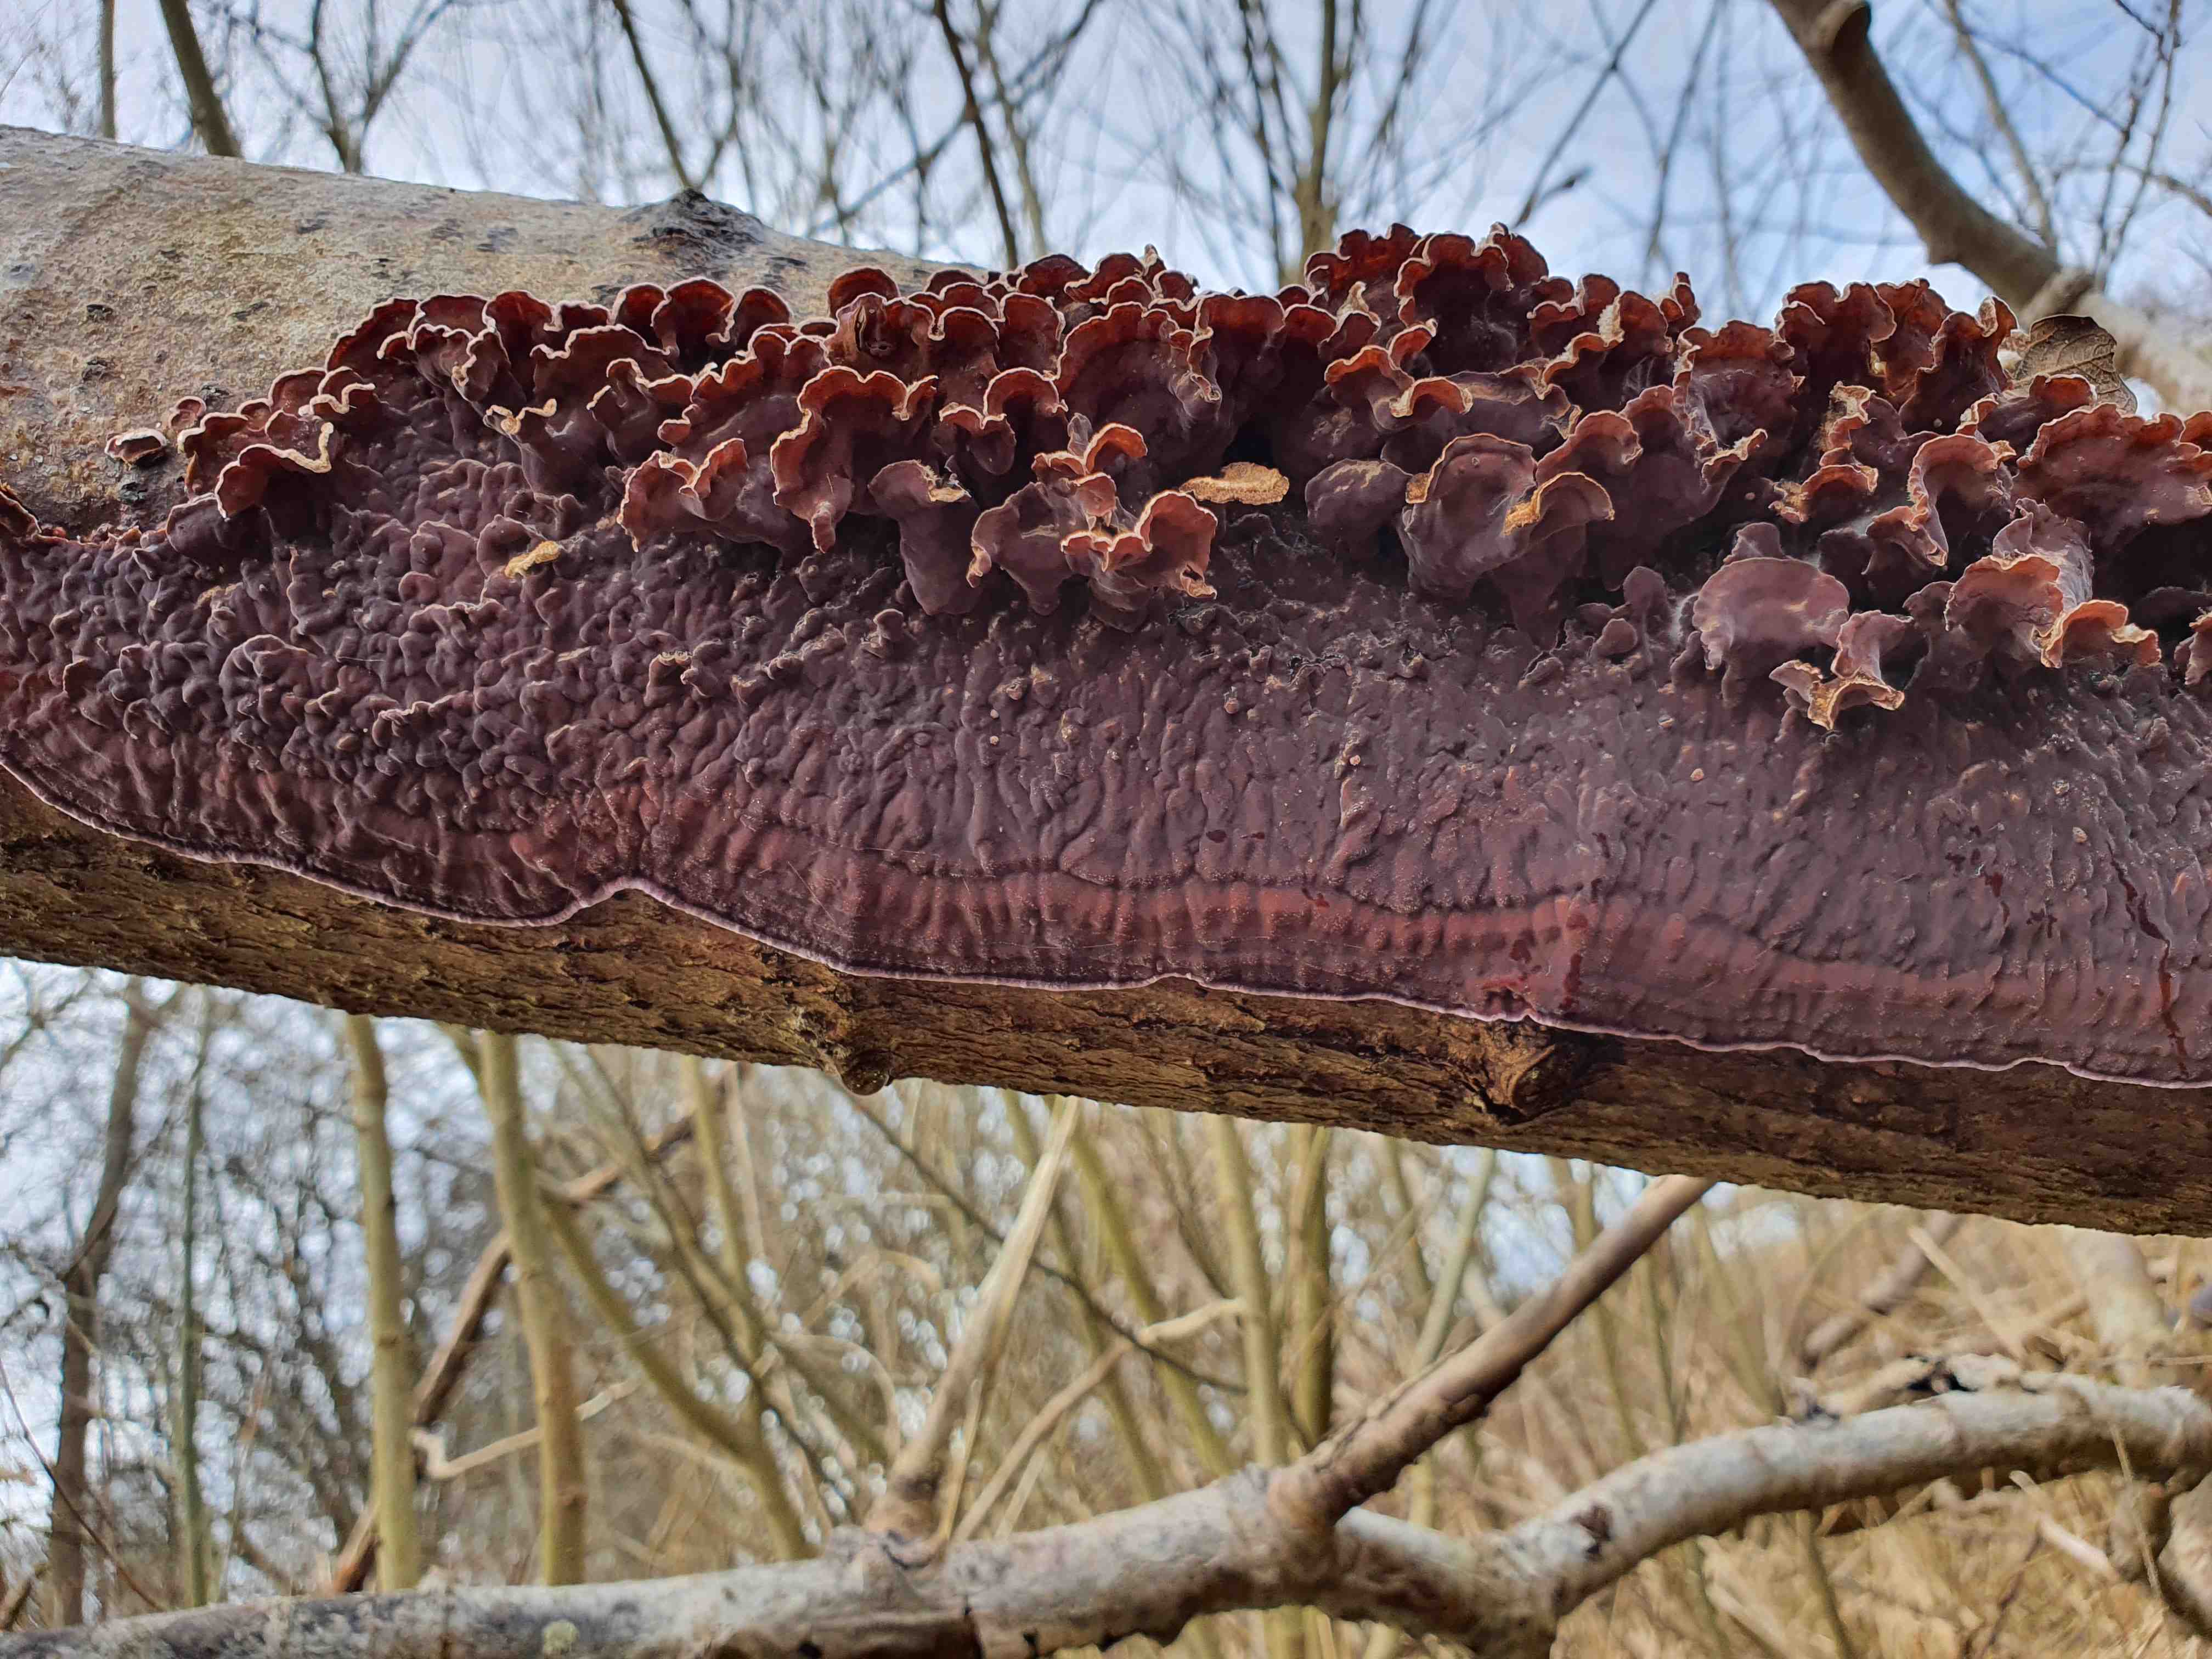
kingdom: Fungi
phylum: Basidiomycota
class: Agaricomycetes
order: Agaricales
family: Cyphellaceae
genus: Chondrostereum
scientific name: Chondrostereum purpureum
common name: purpurlædersvamp
